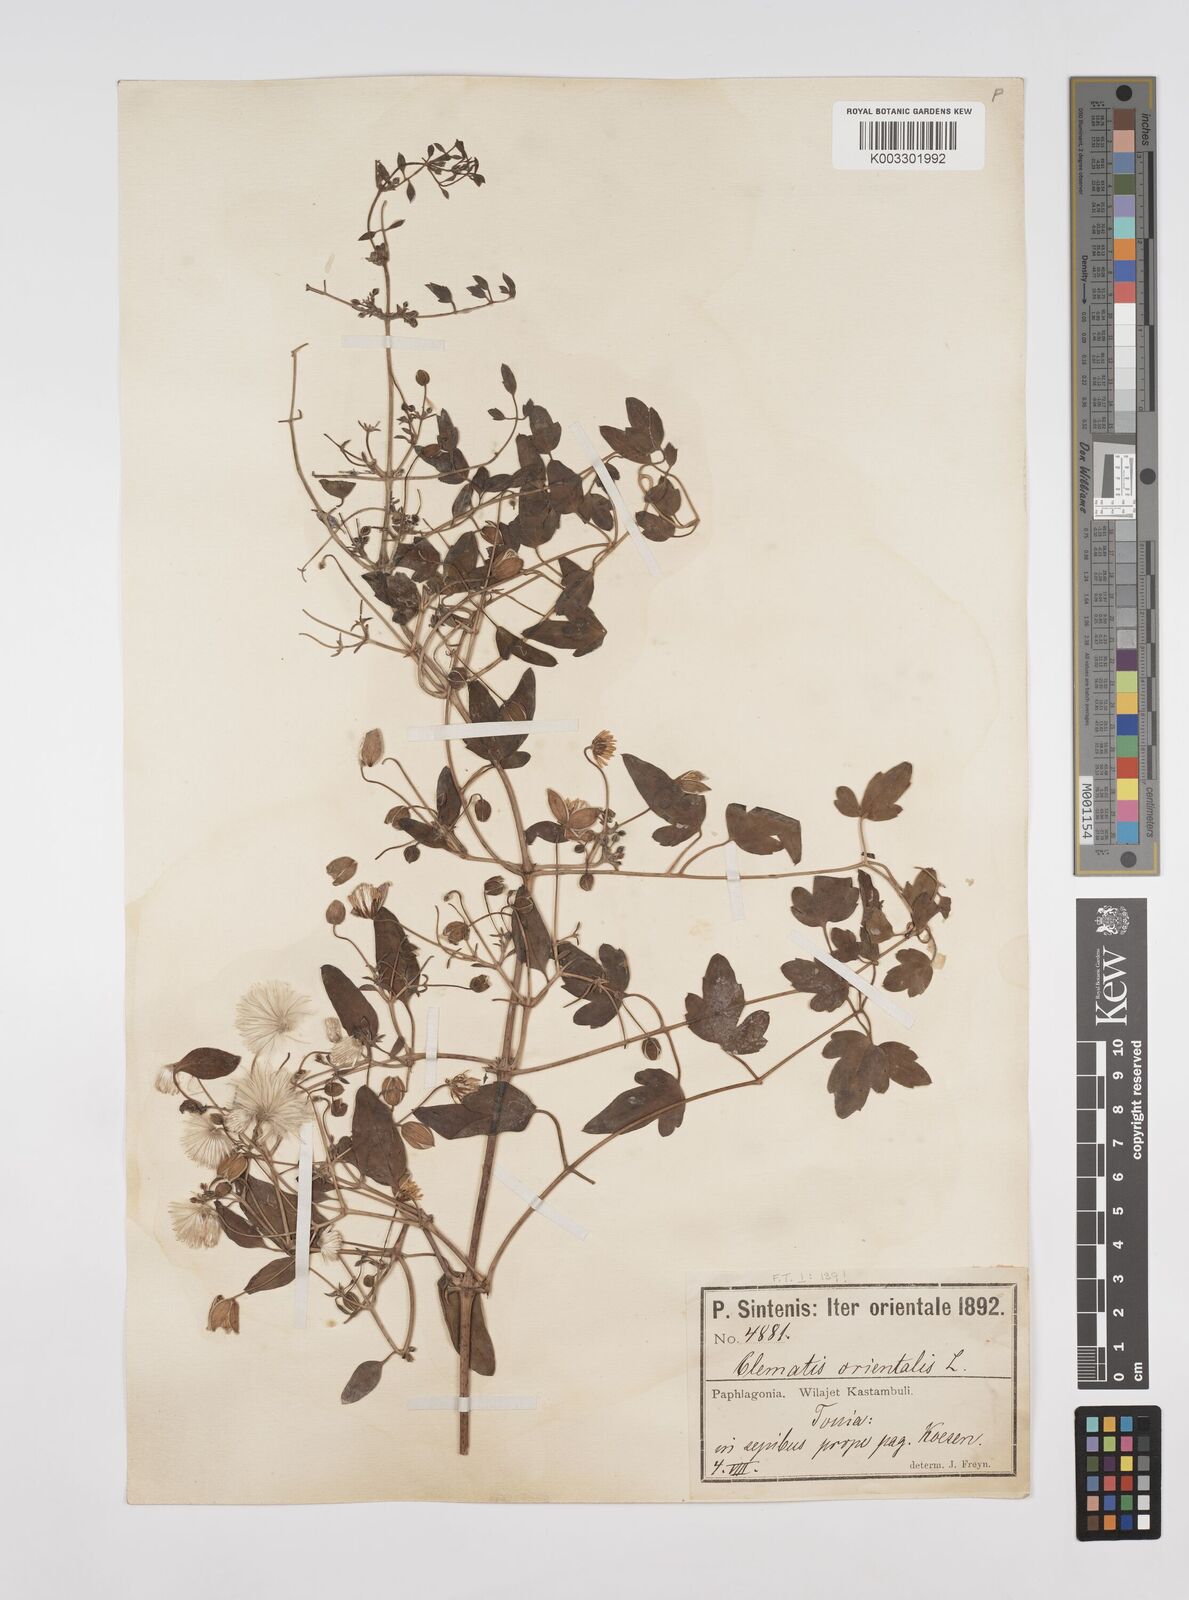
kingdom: Plantae
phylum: Tracheophyta
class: Magnoliopsida
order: Ranunculales
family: Ranunculaceae
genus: Clematis
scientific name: Clematis orientalis
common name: Oriental virgin's-bower
